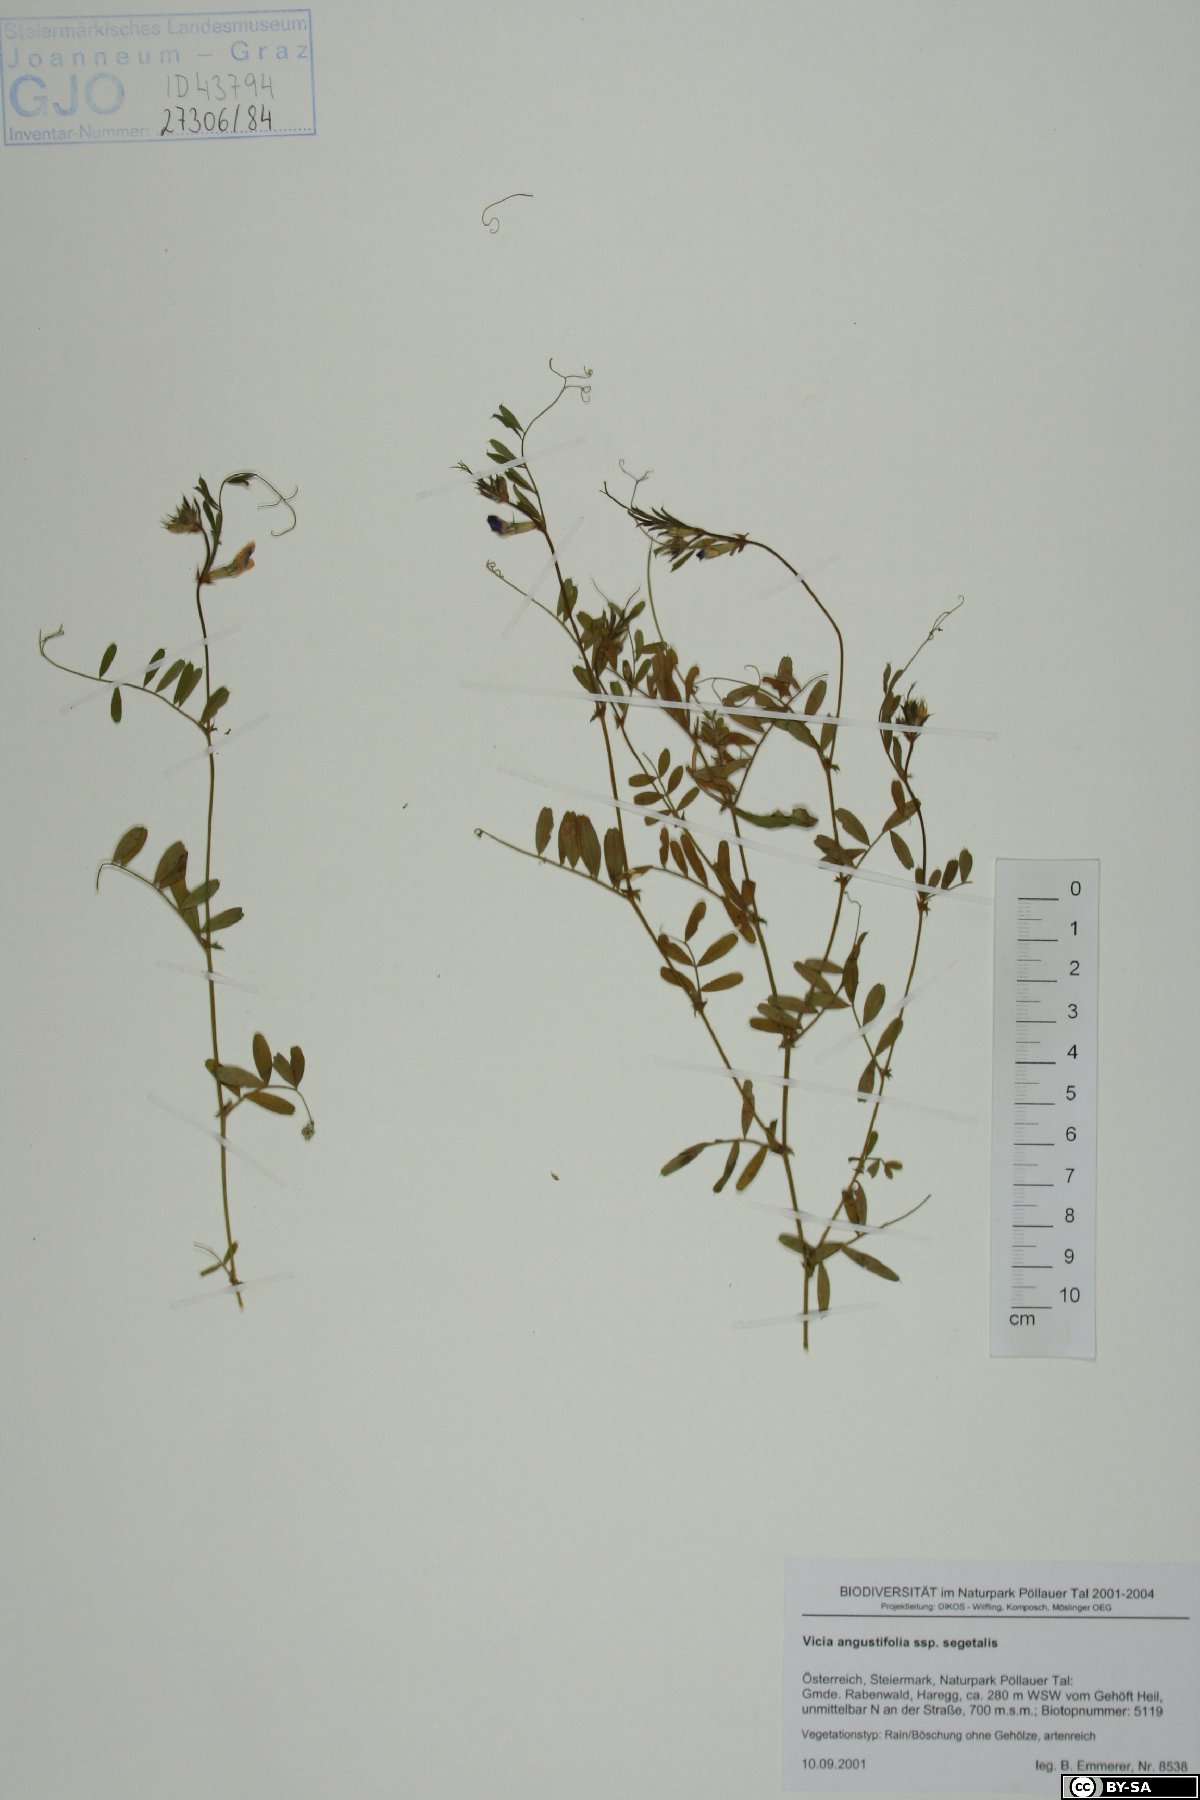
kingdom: Plantae
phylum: Tracheophyta
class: Magnoliopsida
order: Fabales
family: Fabaceae
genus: Vicia
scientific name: Vicia sativa
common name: Garden vetch
